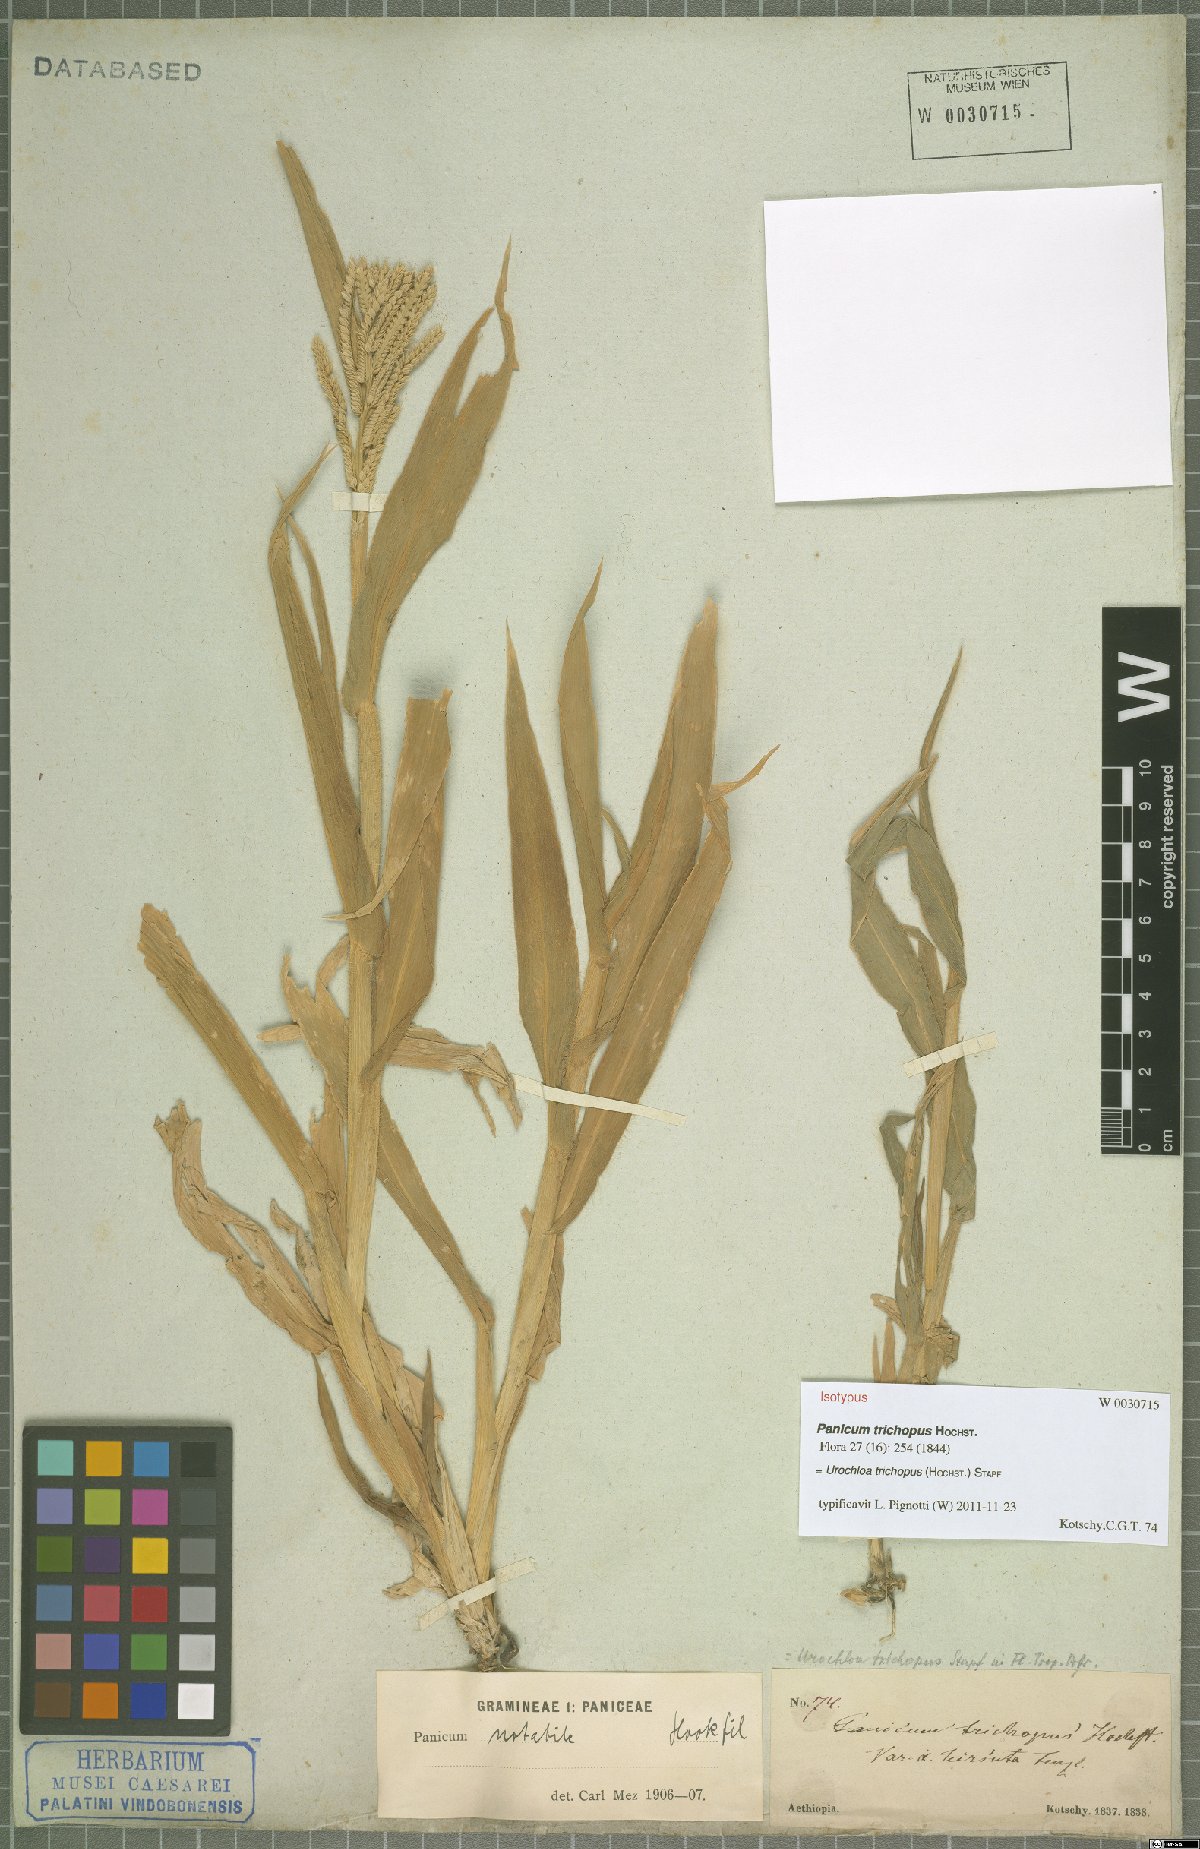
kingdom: Plantae
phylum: Tracheophyta
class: Liliopsida
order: Poales
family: Poaceae
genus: Urochloa
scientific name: Urochloa trichopus
